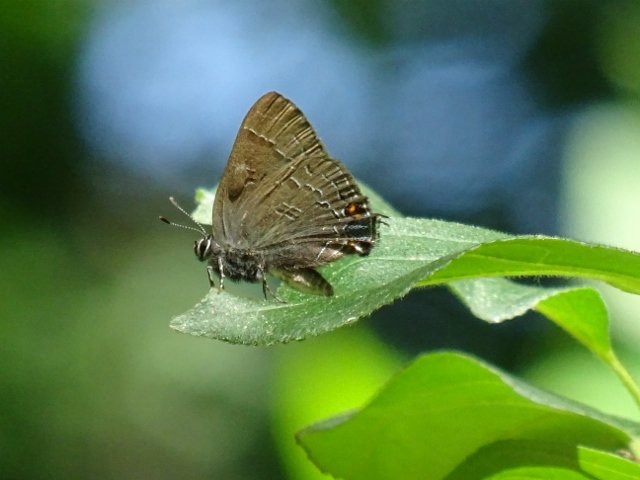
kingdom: Animalia
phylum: Arthropoda
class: Insecta
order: Lepidoptera
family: Lycaenidae
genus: Satyrium
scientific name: Satyrium calanus
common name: Banded Hairstreak
